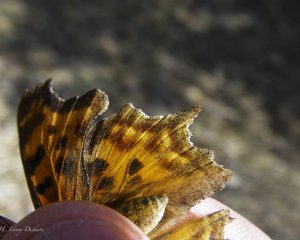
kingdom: Animalia
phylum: Arthropoda
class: Insecta
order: Lepidoptera
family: Nymphalidae
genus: Polygonia
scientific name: Polygonia satyrus
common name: Satyr Comma
